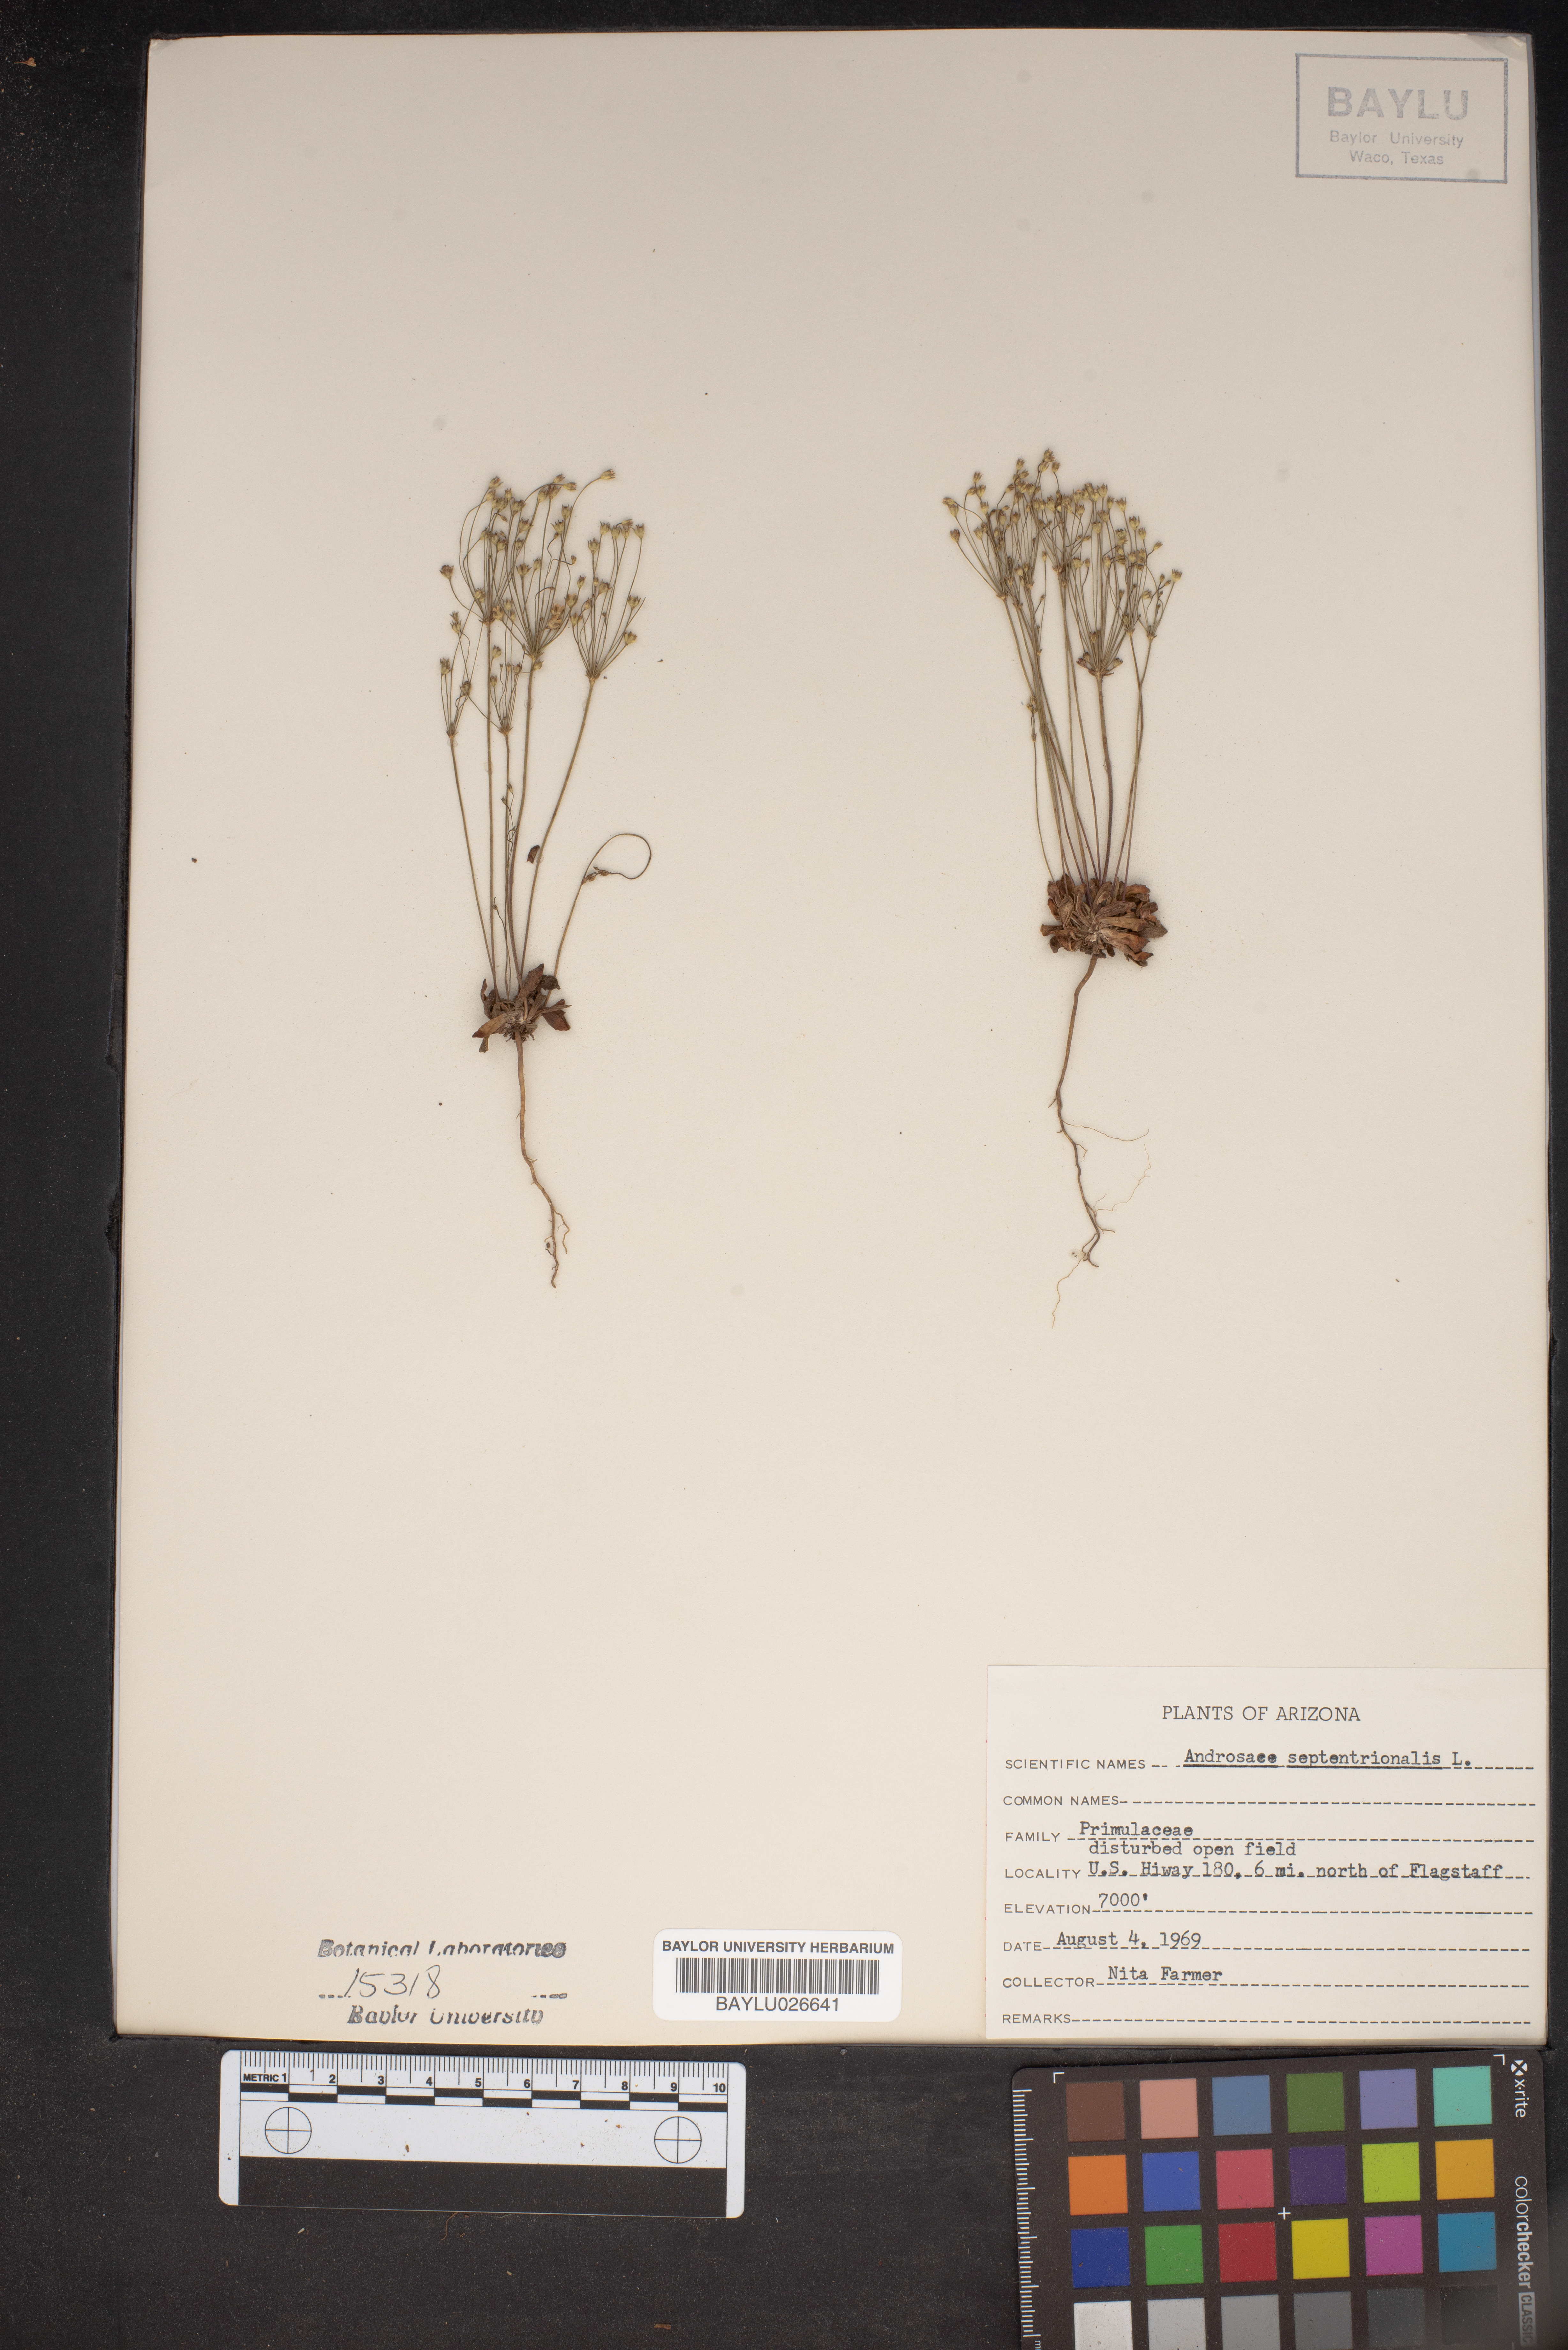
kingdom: Plantae
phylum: Tracheophyta
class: Magnoliopsida
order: Ericales
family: Primulaceae
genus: Androsace
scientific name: Androsace septentrionalis
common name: Hairy northern fairy-candelabra
